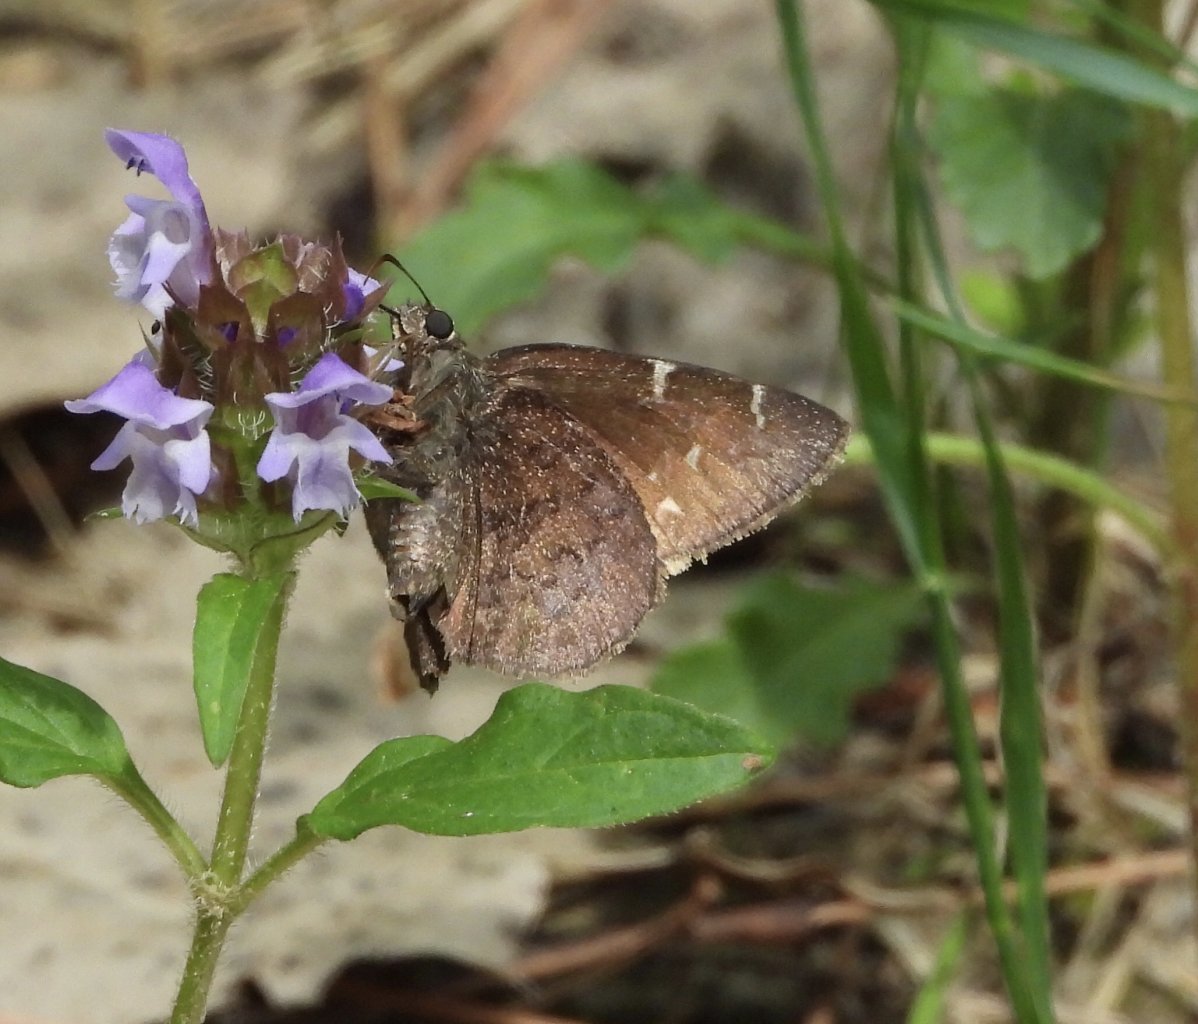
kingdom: Animalia
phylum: Arthropoda
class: Insecta
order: Lepidoptera
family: Hesperiidae
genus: Autochton
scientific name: Autochton
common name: Northern Cloudywing
